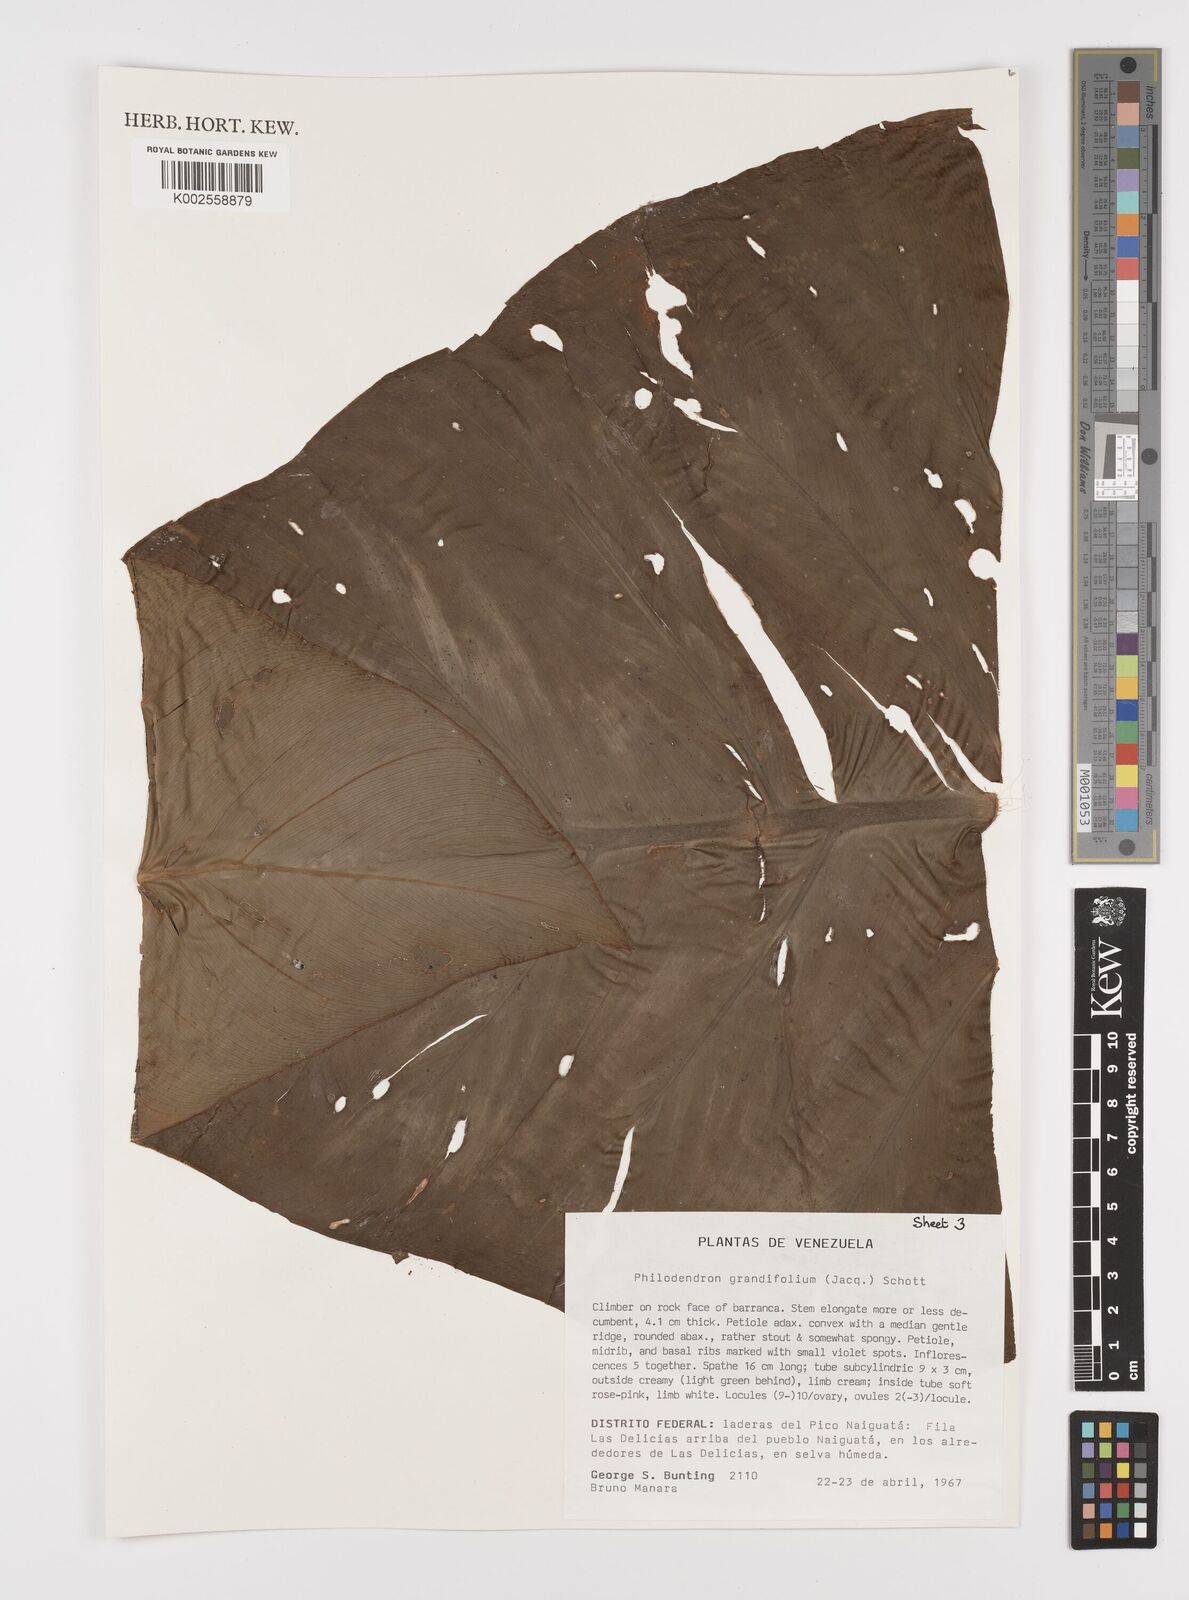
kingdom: Plantae
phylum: Tracheophyta
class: Liliopsida
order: Alismatales
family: Araceae
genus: Philodendron
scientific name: Philodendron grandifolium
